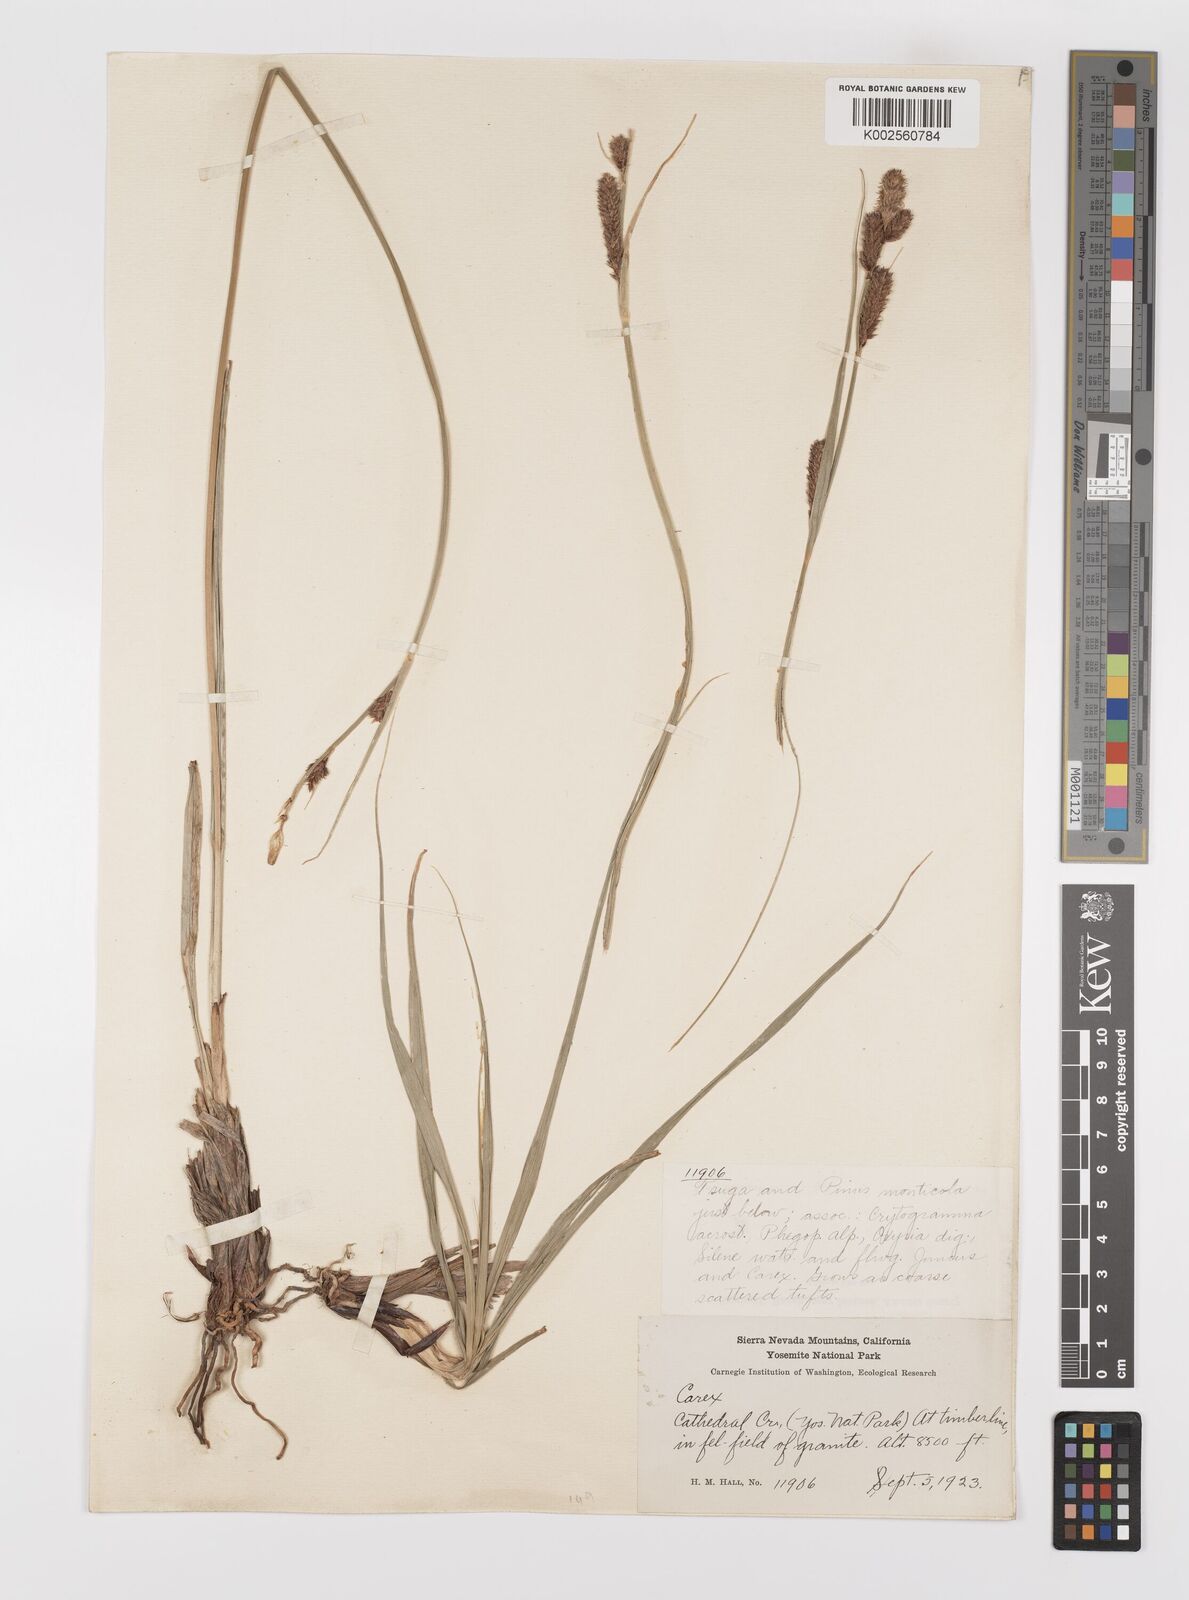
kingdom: Plantae
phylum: Tracheophyta
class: Liliopsida
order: Poales
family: Cyperaceae
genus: Carex
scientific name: Carex lasiocarpa
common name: Slender sedge
